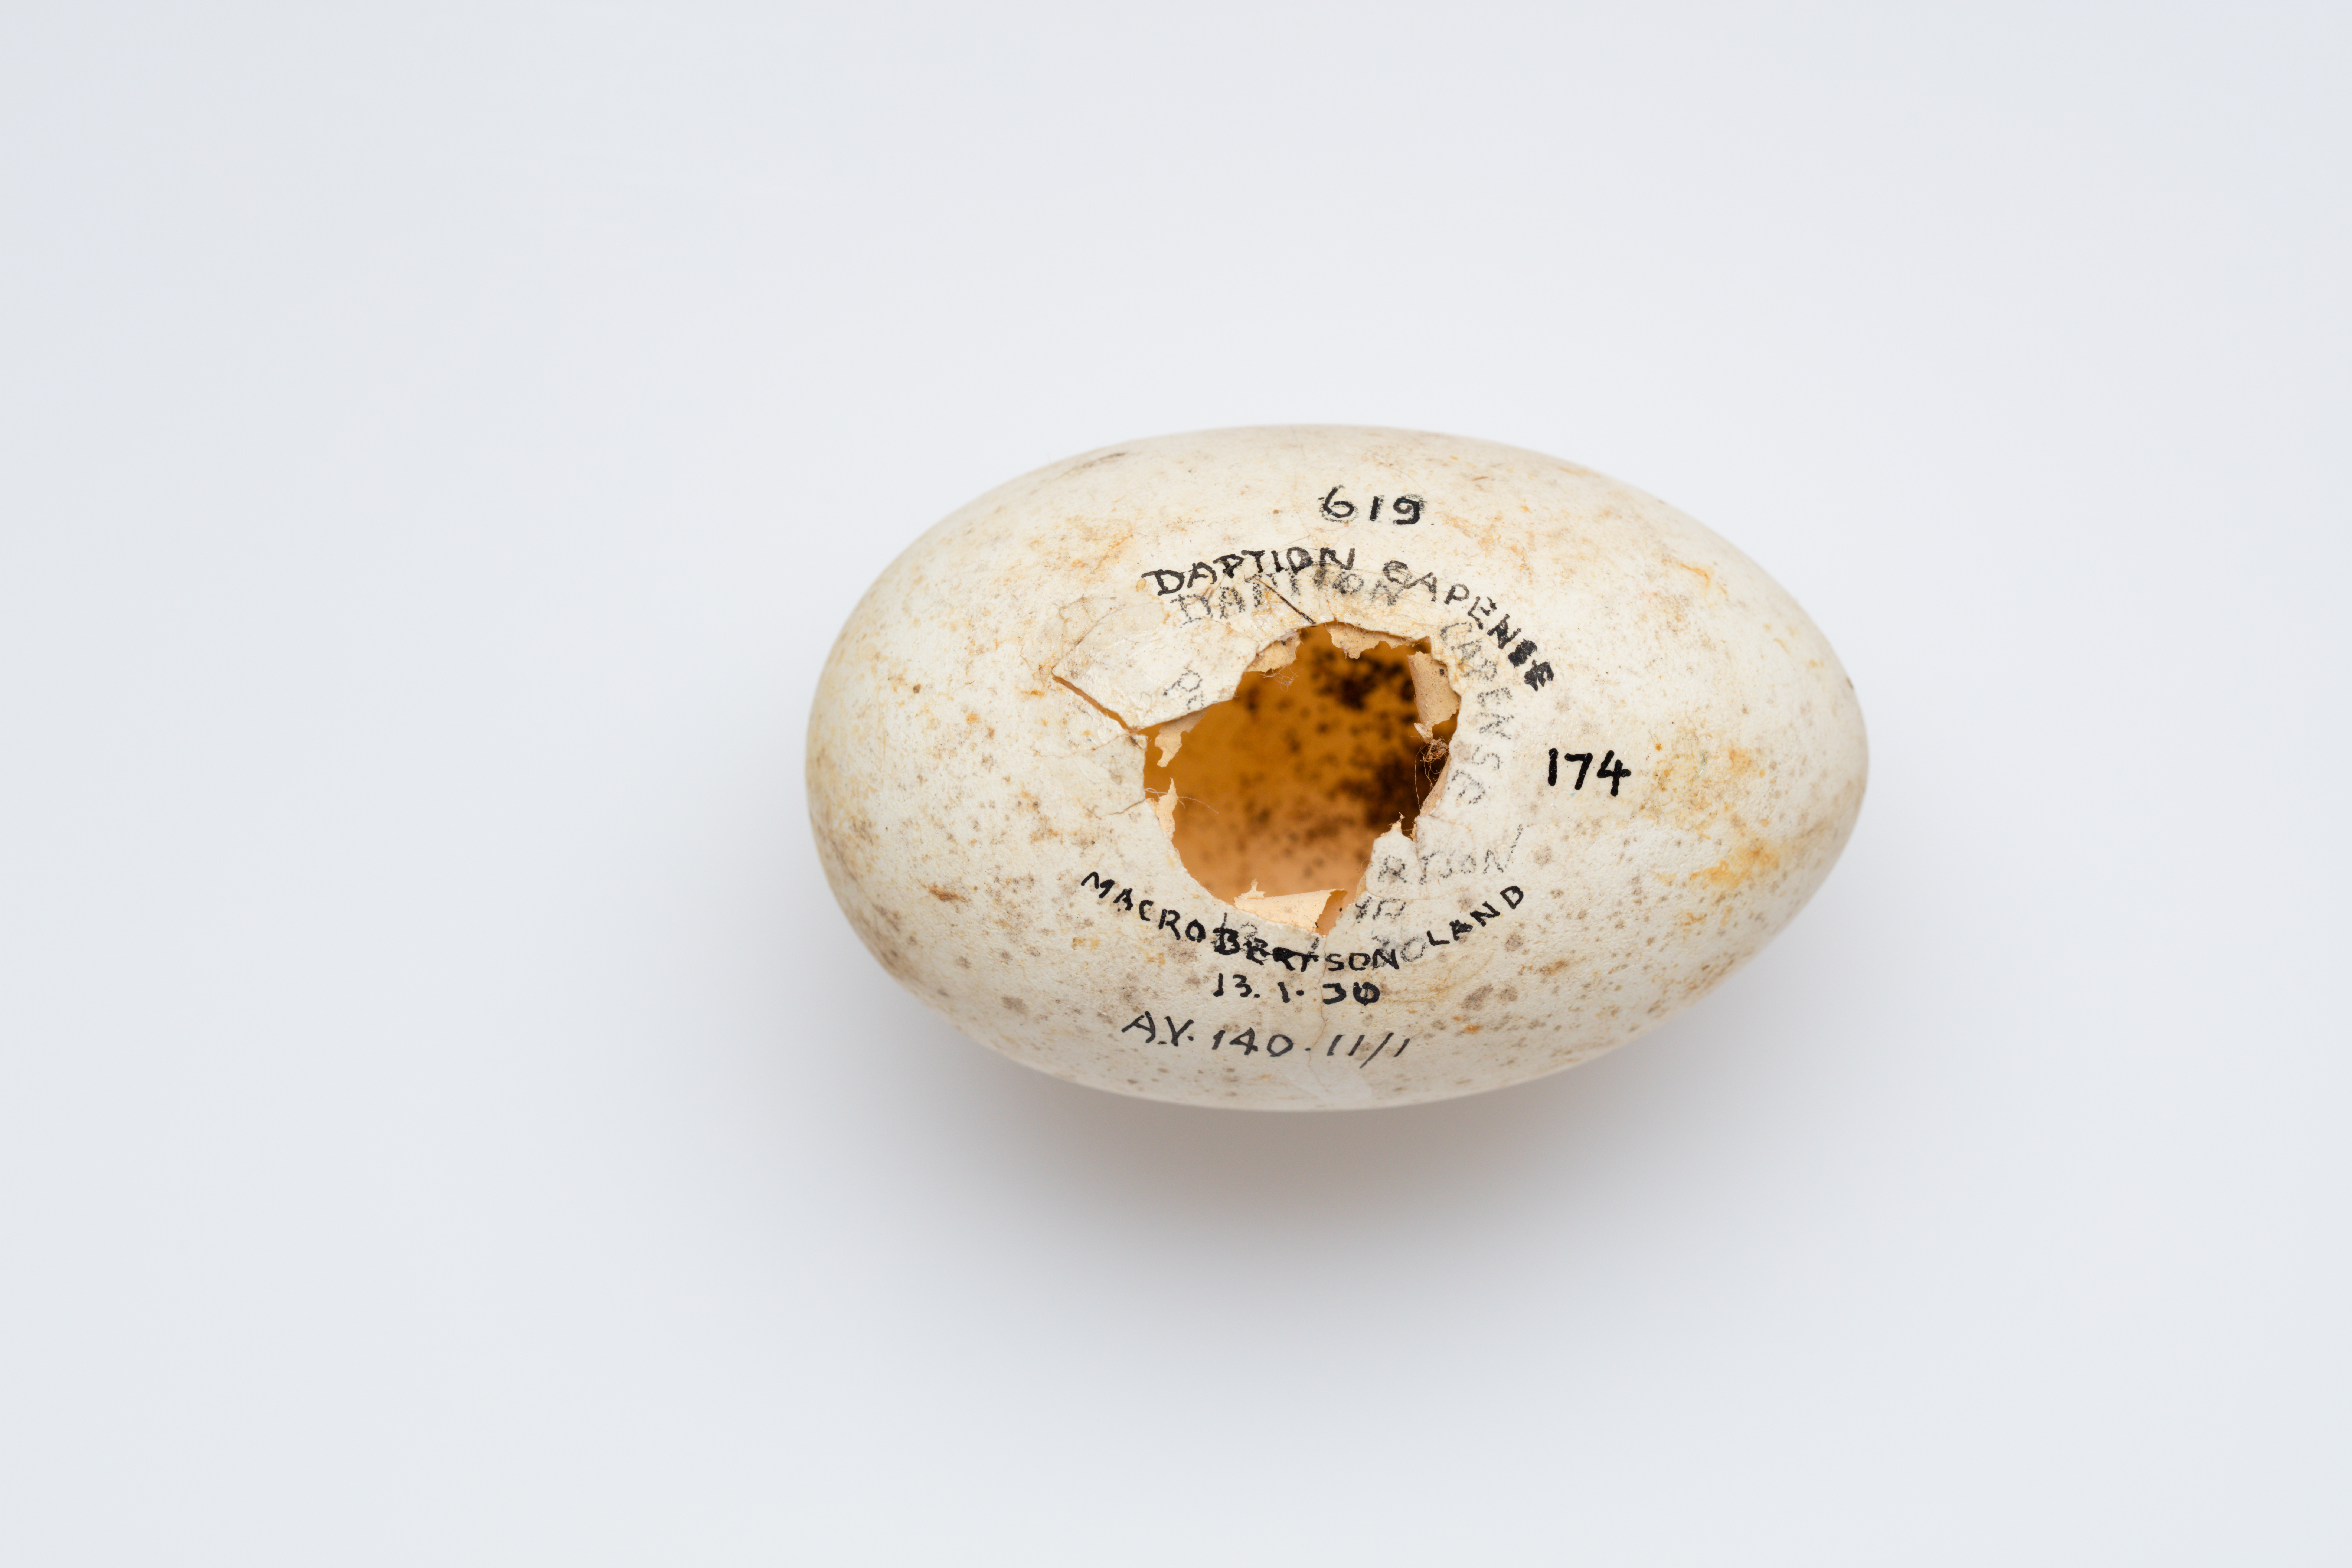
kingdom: Animalia
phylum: Chordata
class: Aves
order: Procellariiformes
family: Procellariidae
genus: Daption
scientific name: Daption capense
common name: Cape petrel
